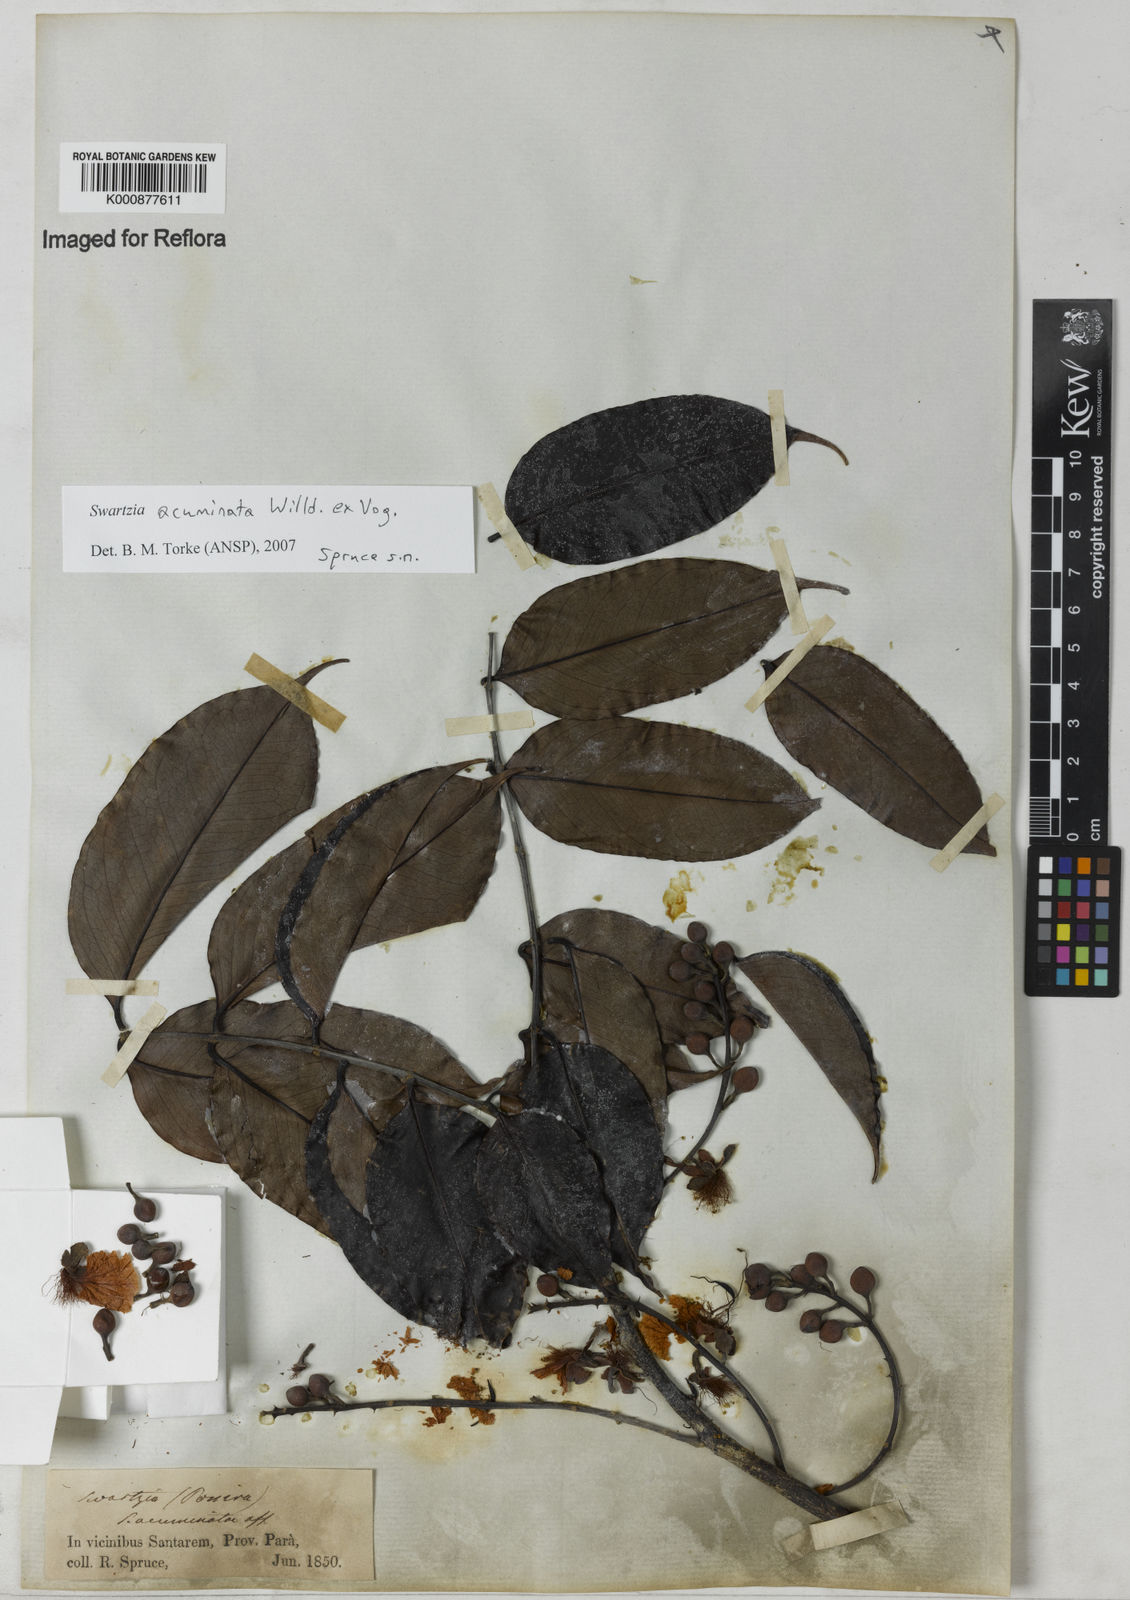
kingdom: Plantae
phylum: Tracheophyta
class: Magnoliopsida
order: Fabales
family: Fabaceae
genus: Swartzia
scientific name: Swartzia acuminata
